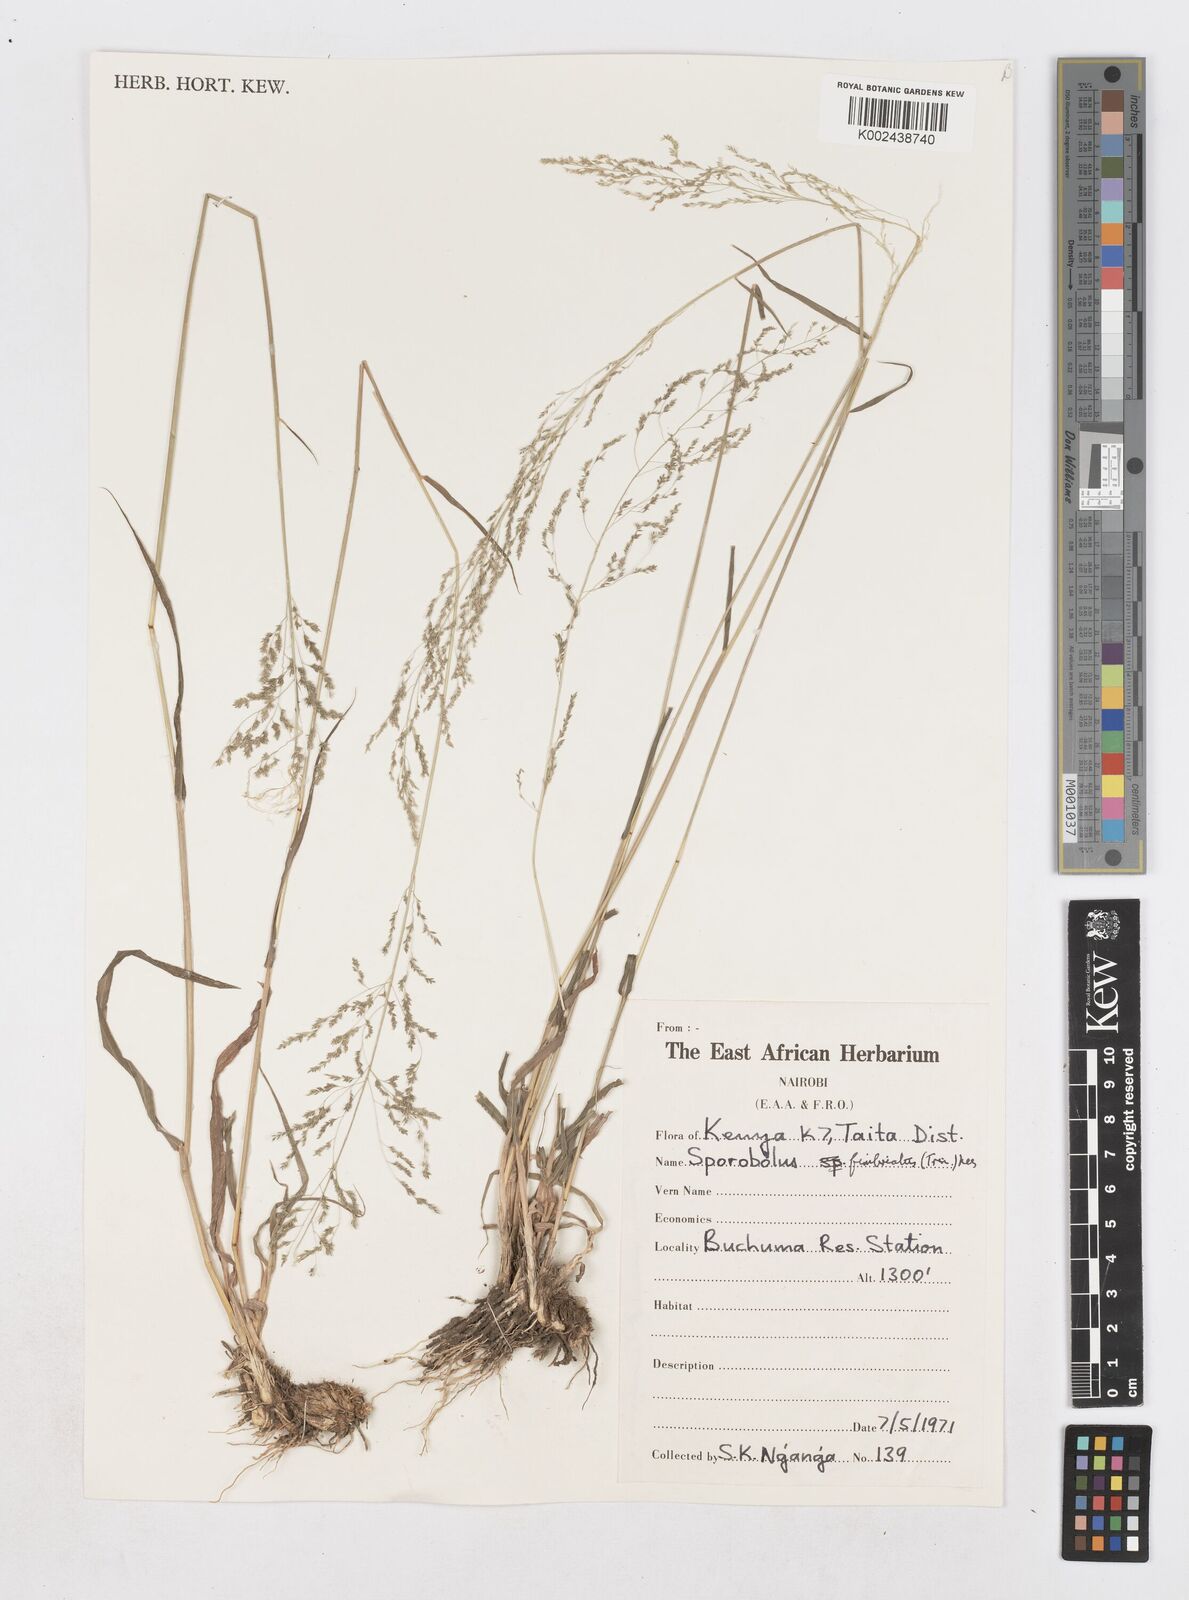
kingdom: Plantae
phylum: Tracheophyta
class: Liliopsida
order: Poales
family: Poaceae
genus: Sporobolus
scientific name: Sporobolus fimbriatus
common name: Fringed dropseed
